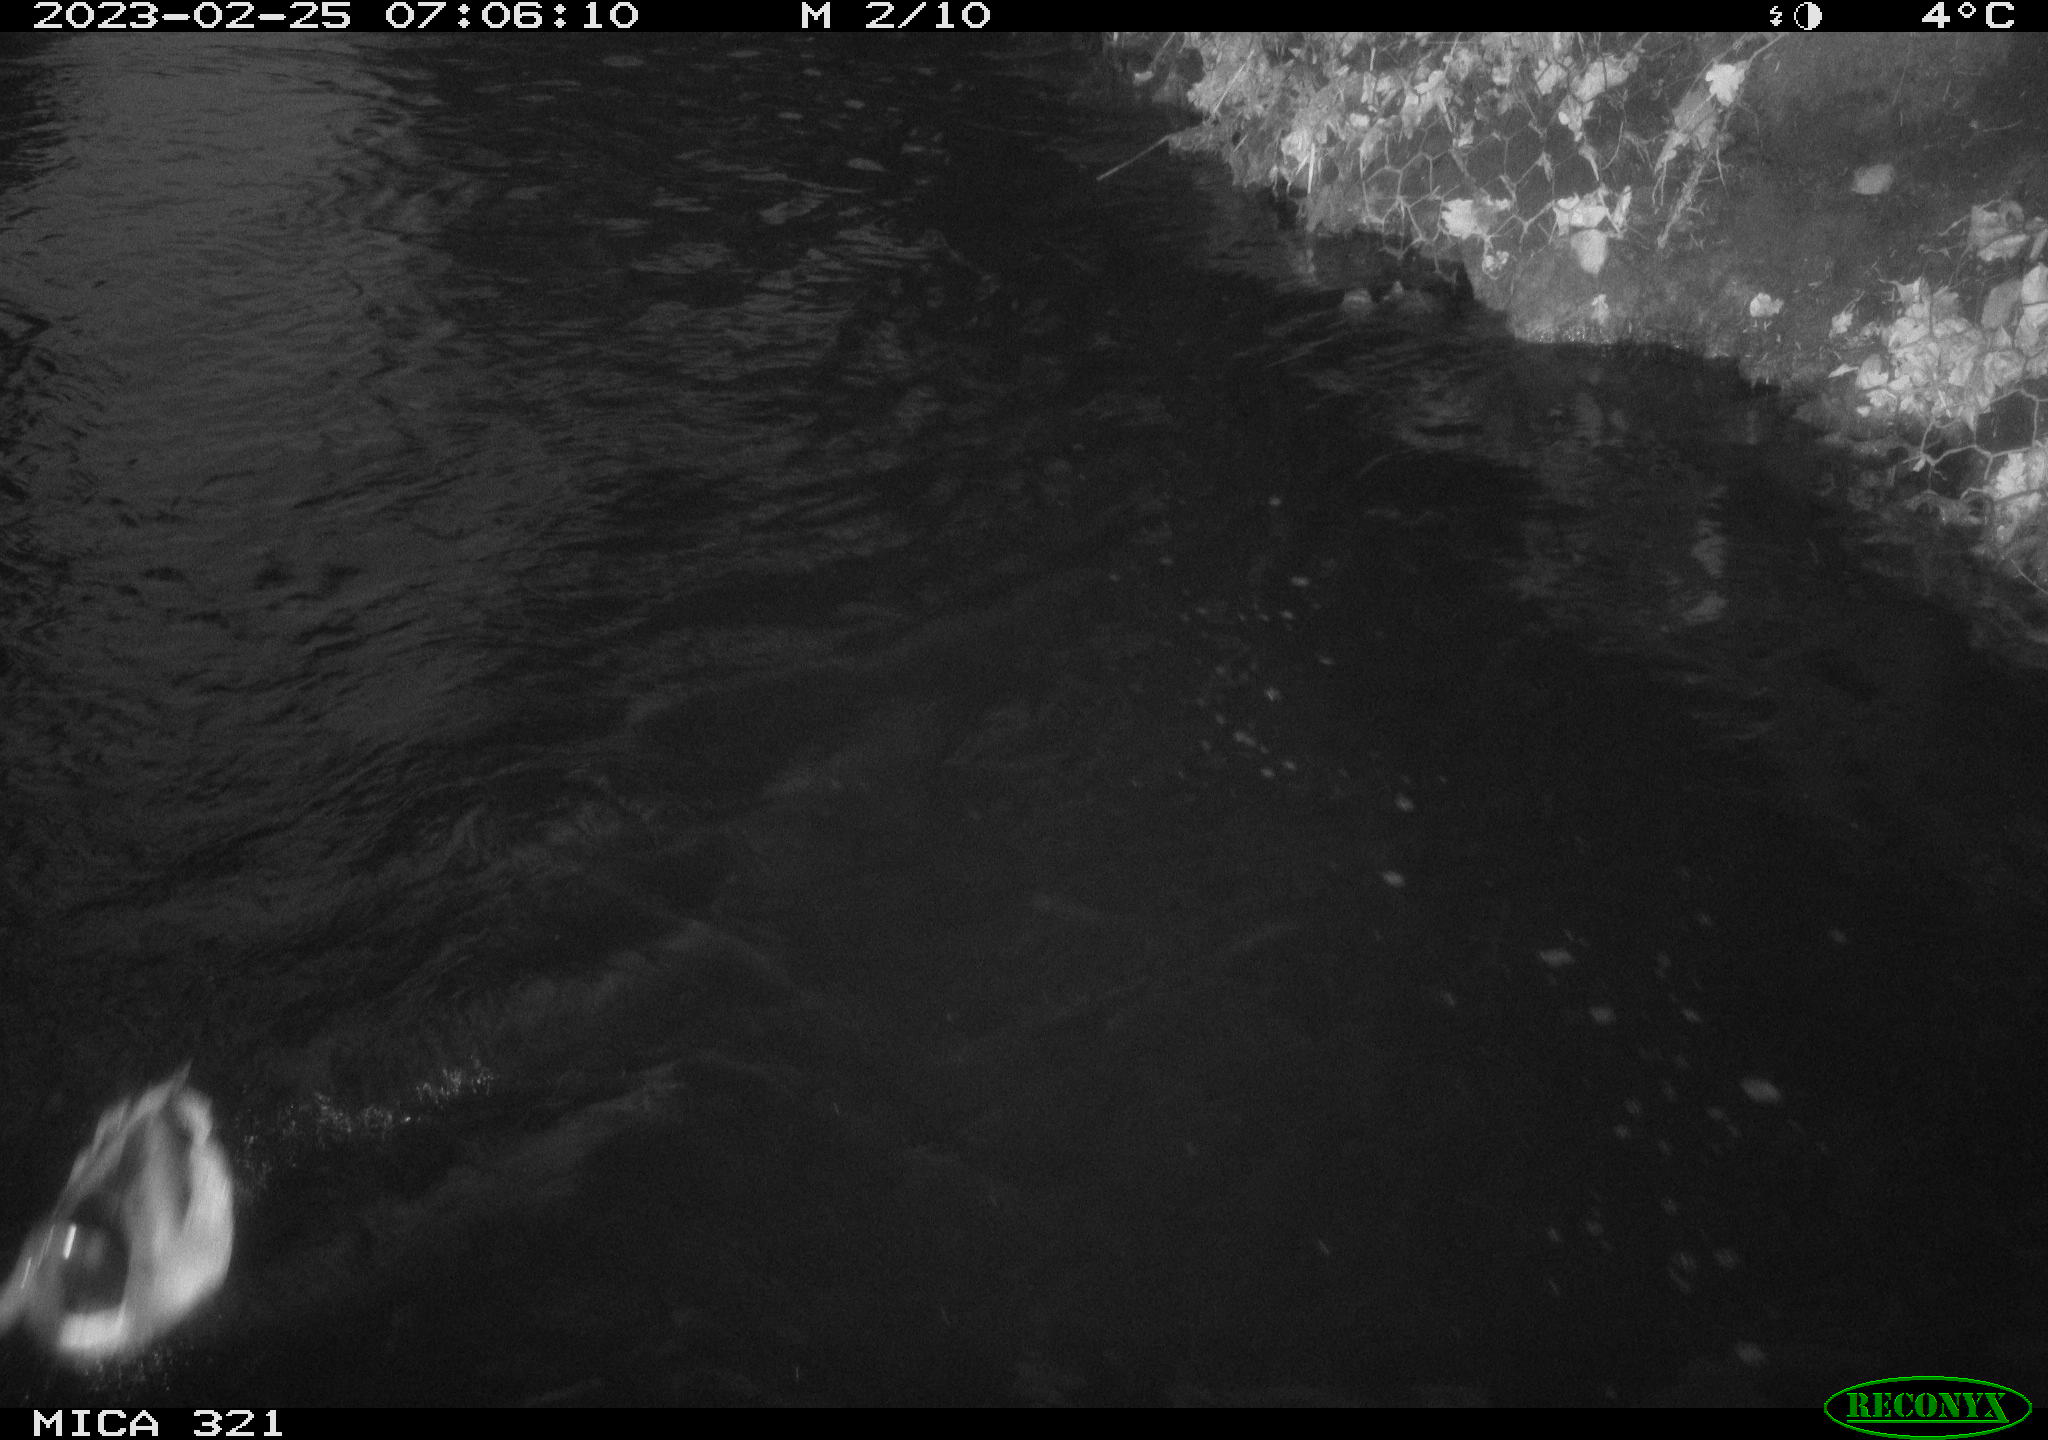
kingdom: Animalia
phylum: Chordata
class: Aves
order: Anseriformes
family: Anatidae
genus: Anas
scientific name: Anas
